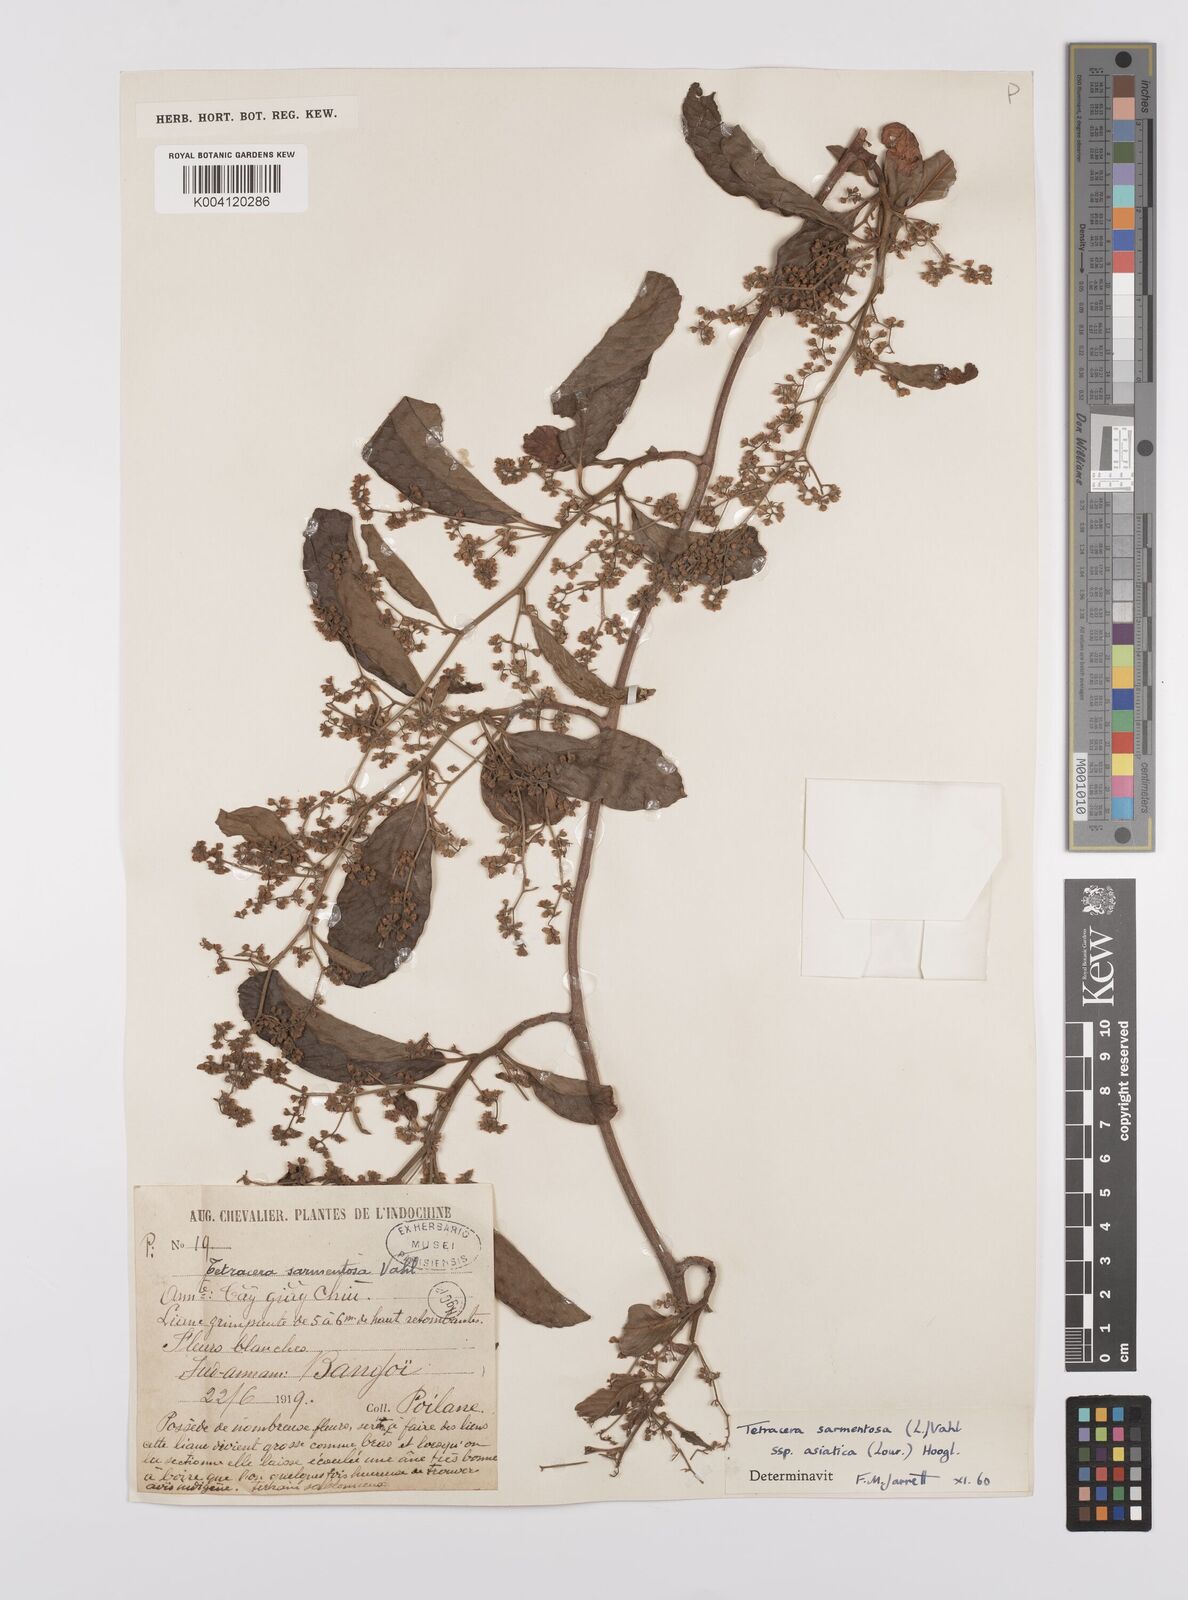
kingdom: Plantae
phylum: Tracheophyta
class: Magnoliopsida
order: Dilleniales
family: Dilleniaceae
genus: Tetracera
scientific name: Tetracera sarmentosa
